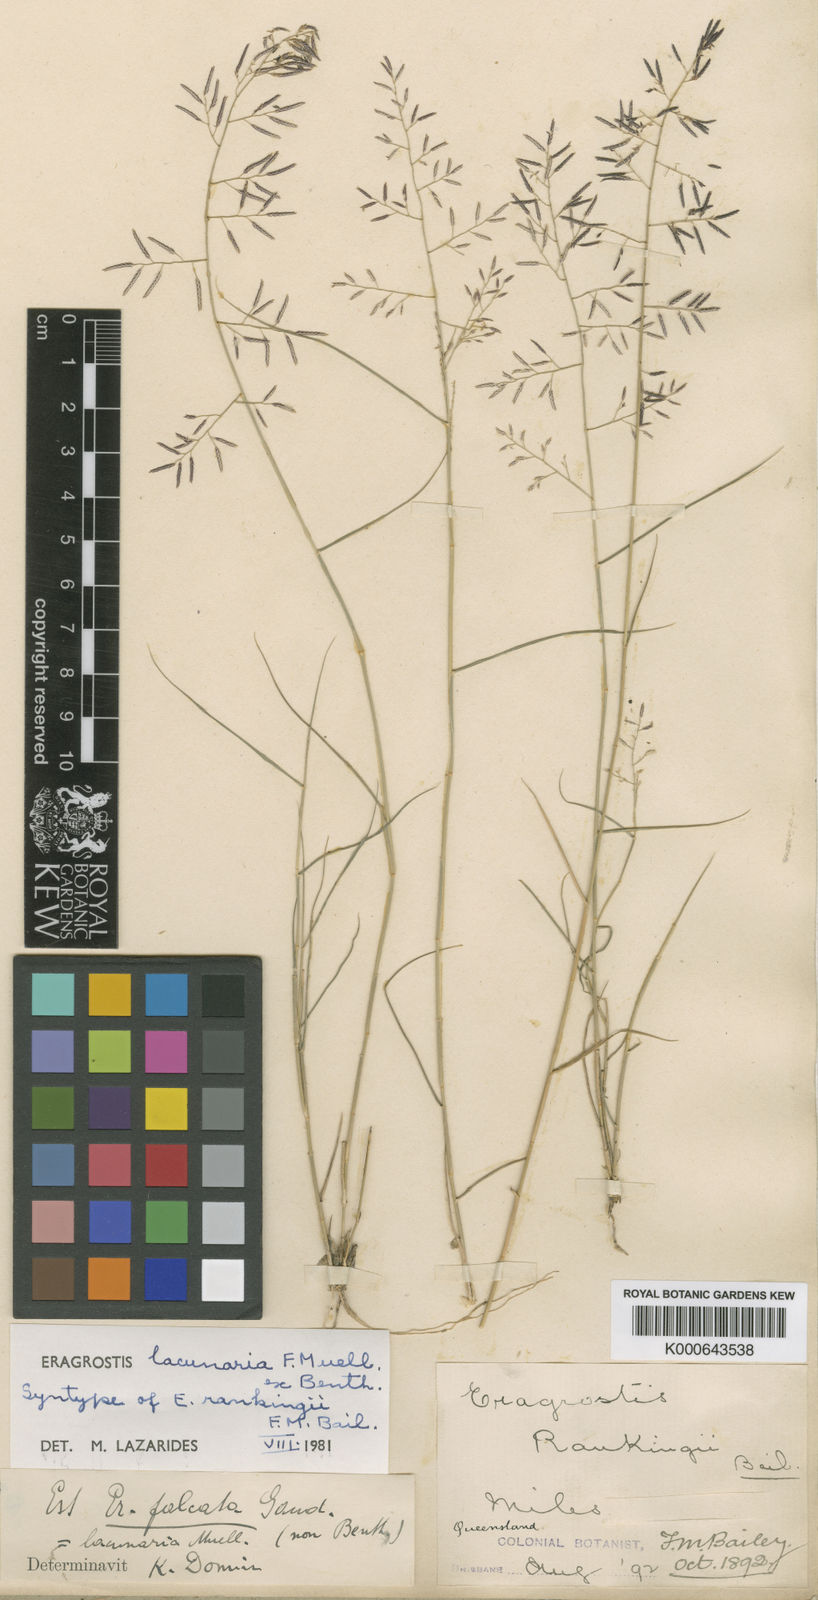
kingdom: Plantae
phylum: Tracheophyta
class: Liliopsida
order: Poales
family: Poaceae
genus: Eragrostis
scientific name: Eragrostis lacunaria
